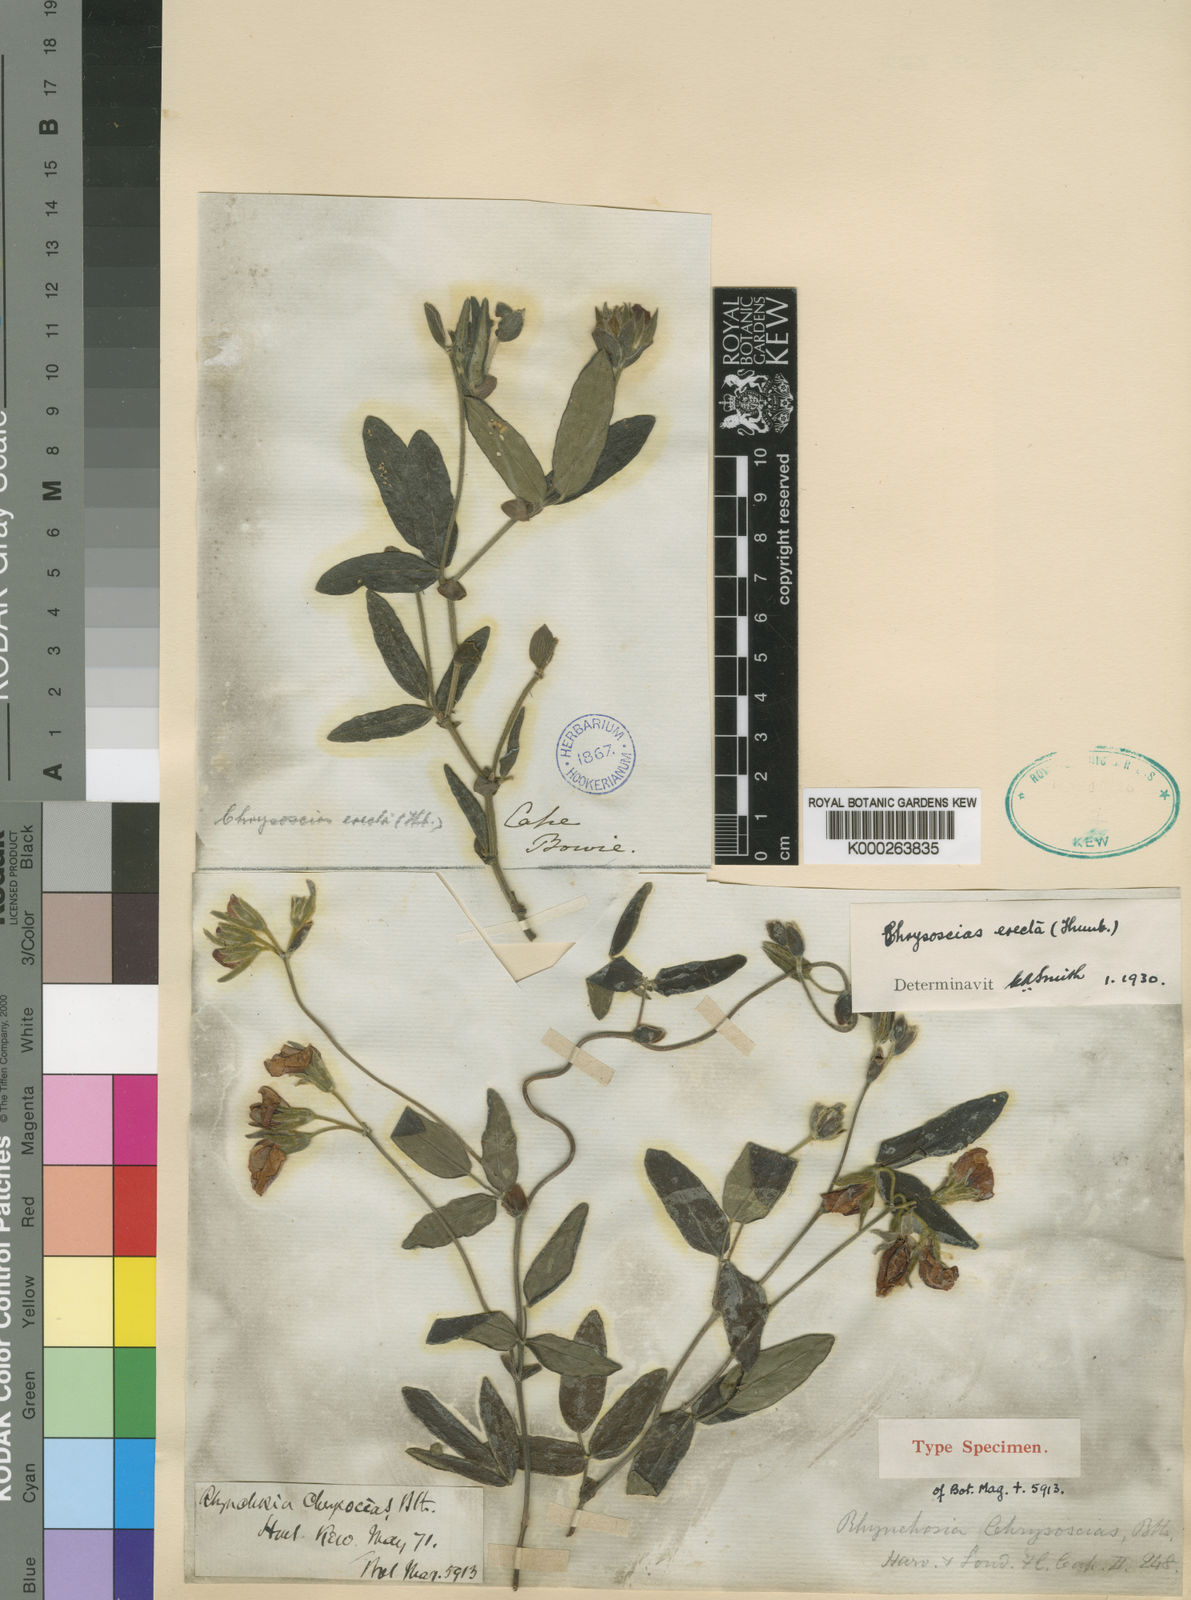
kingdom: Plantae
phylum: Tracheophyta
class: Magnoliopsida
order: Fabales
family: Fabaceae
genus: Rhynchosia
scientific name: Rhynchosia tomentosa
